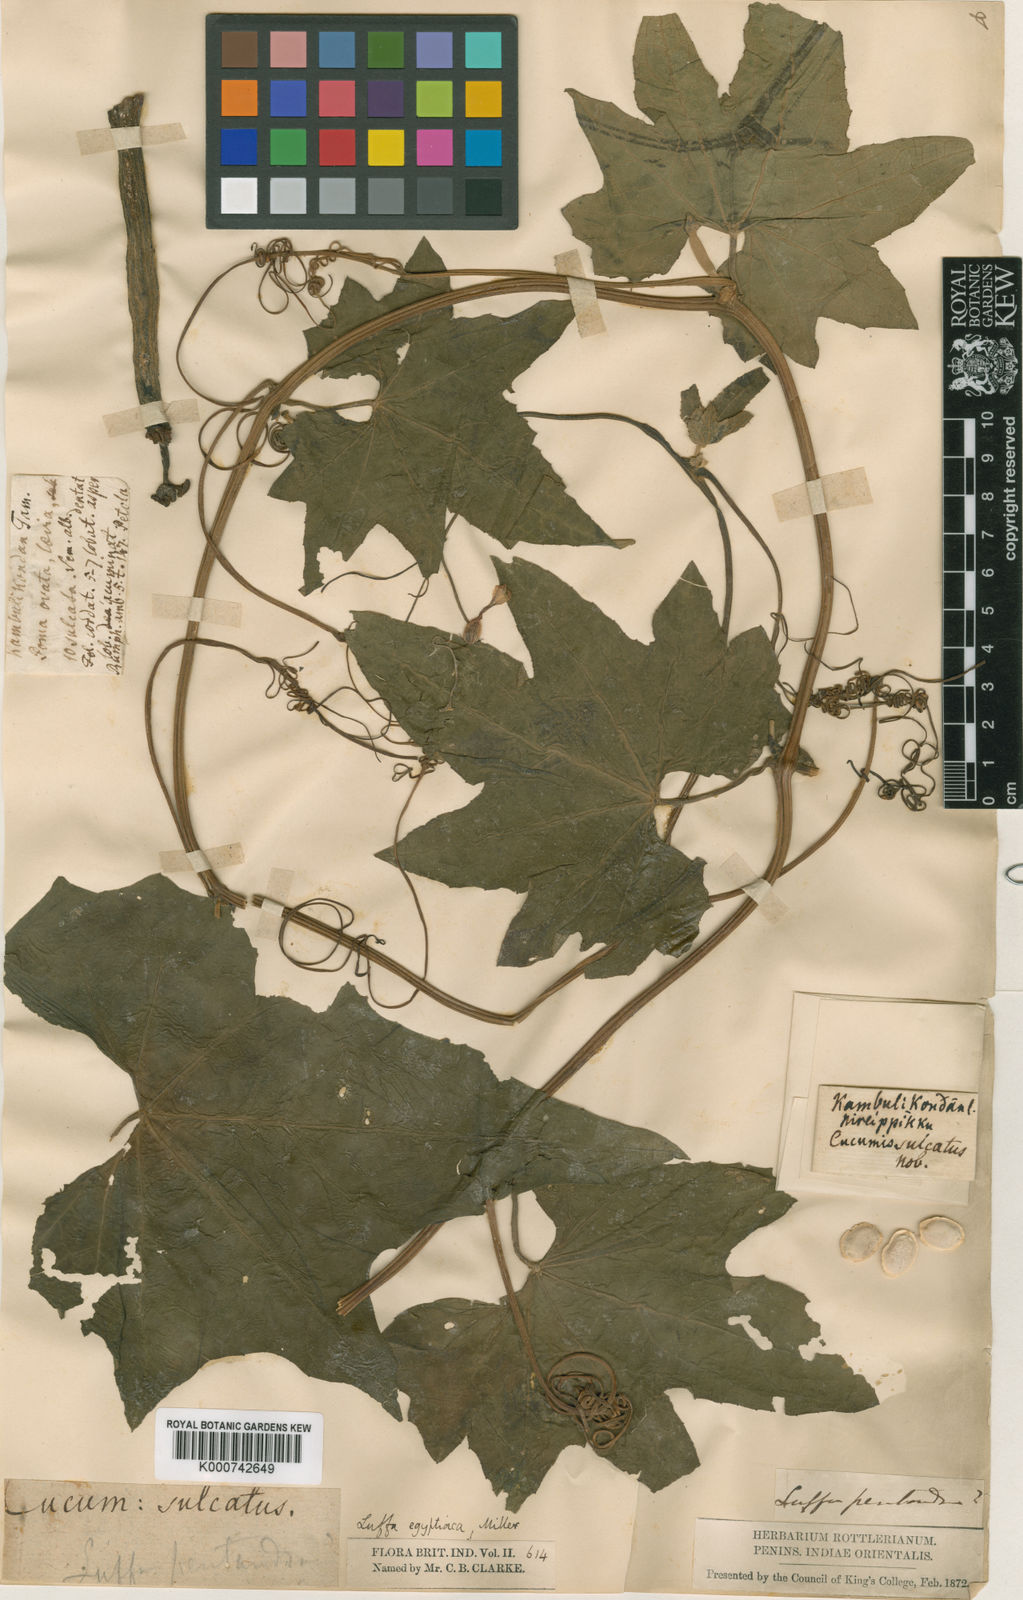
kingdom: Plantae
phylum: Tracheophyta
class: Magnoliopsida
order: Cucurbitales
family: Cucurbitaceae
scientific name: Cucurbitaceae
